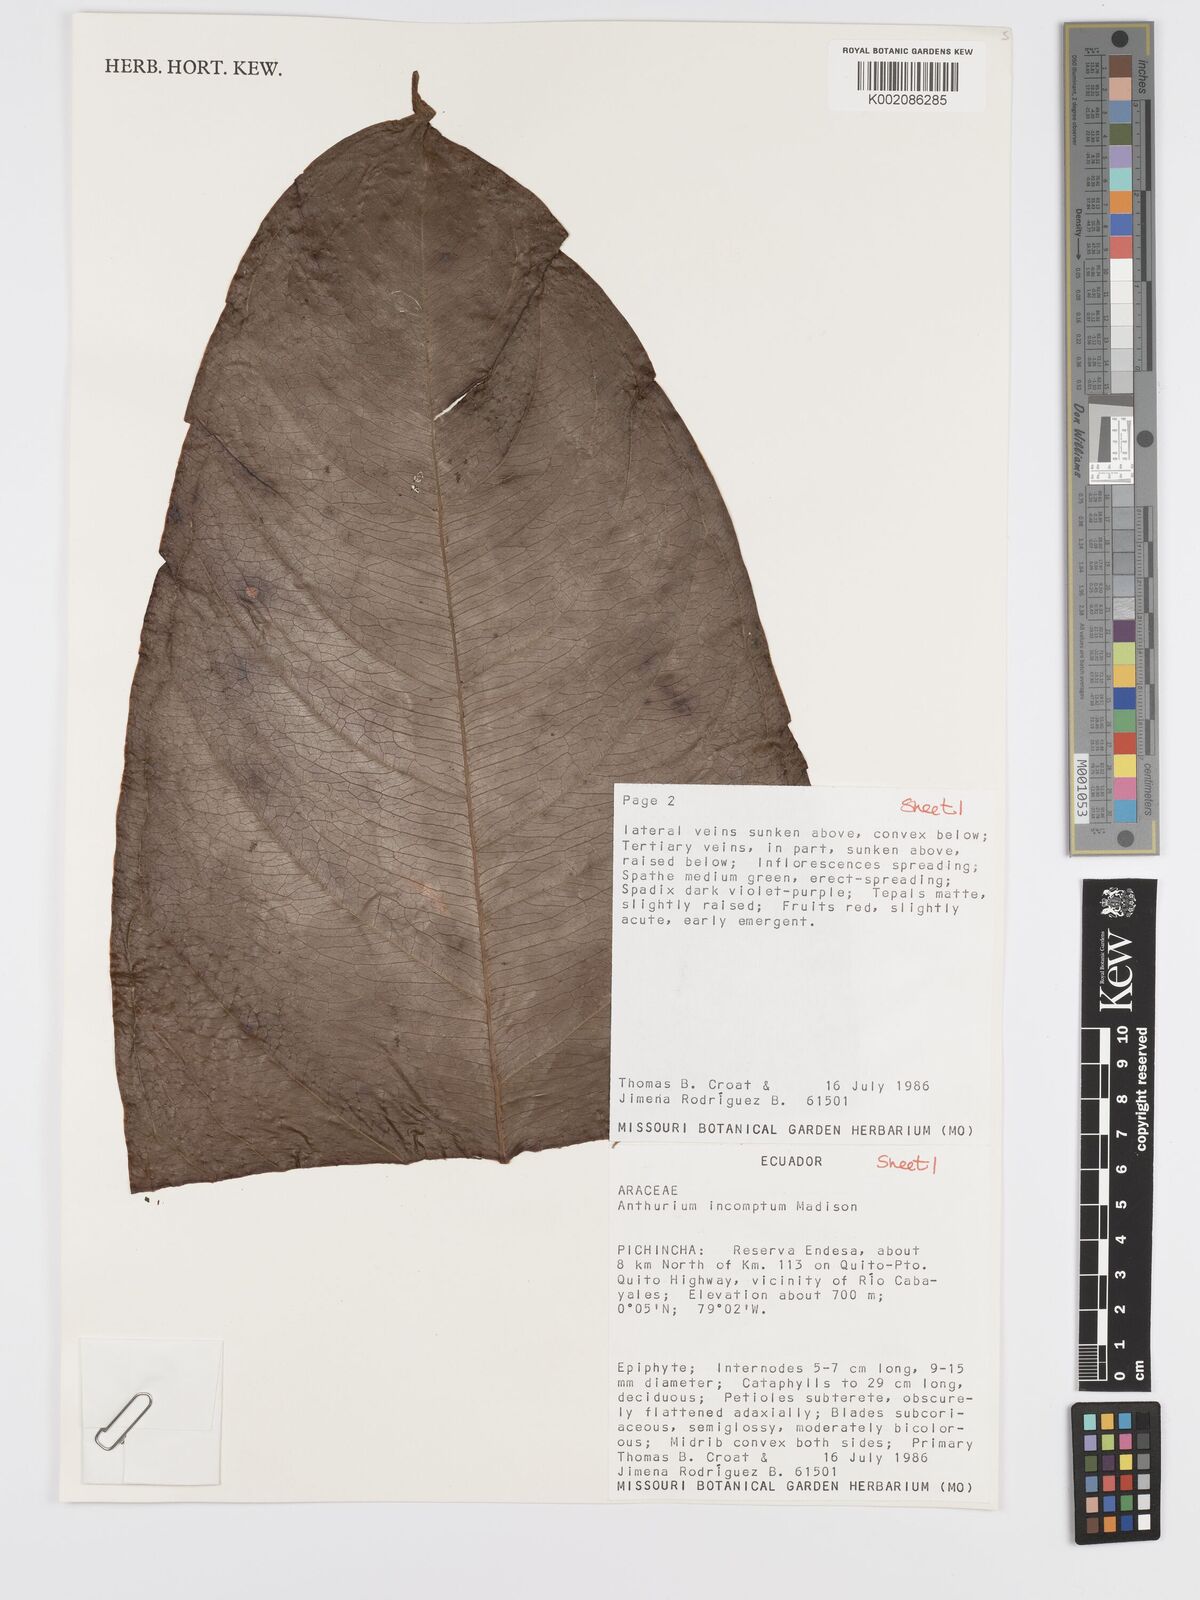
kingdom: Plantae
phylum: Tracheophyta
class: Liliopsida
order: Alismatales
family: Araceae
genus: Anthurium
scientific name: Anthurium incomptum
